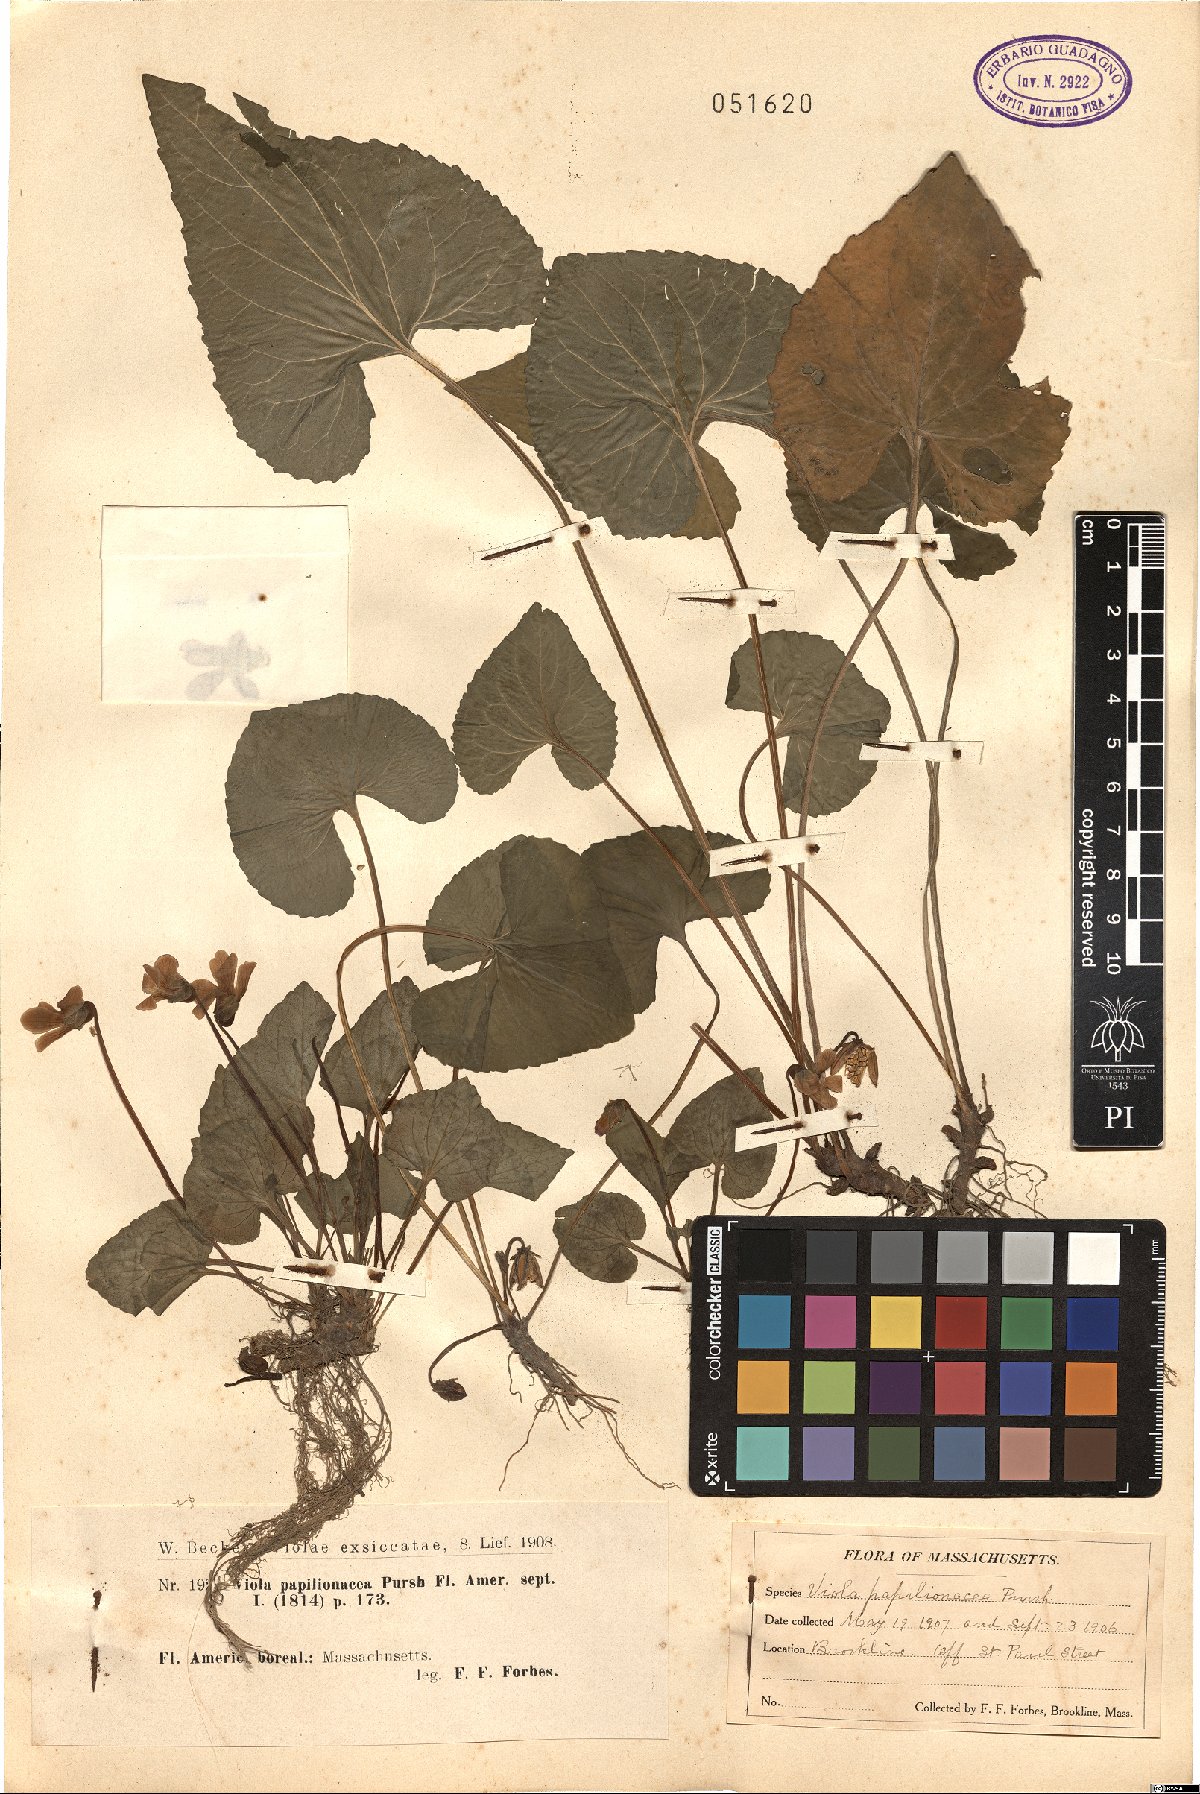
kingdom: Plantae
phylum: Tracheophyta
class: Magnoliopsida
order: Malpighiales
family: Violaceae
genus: Viola
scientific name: Viola sororia
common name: Dooryard violet
